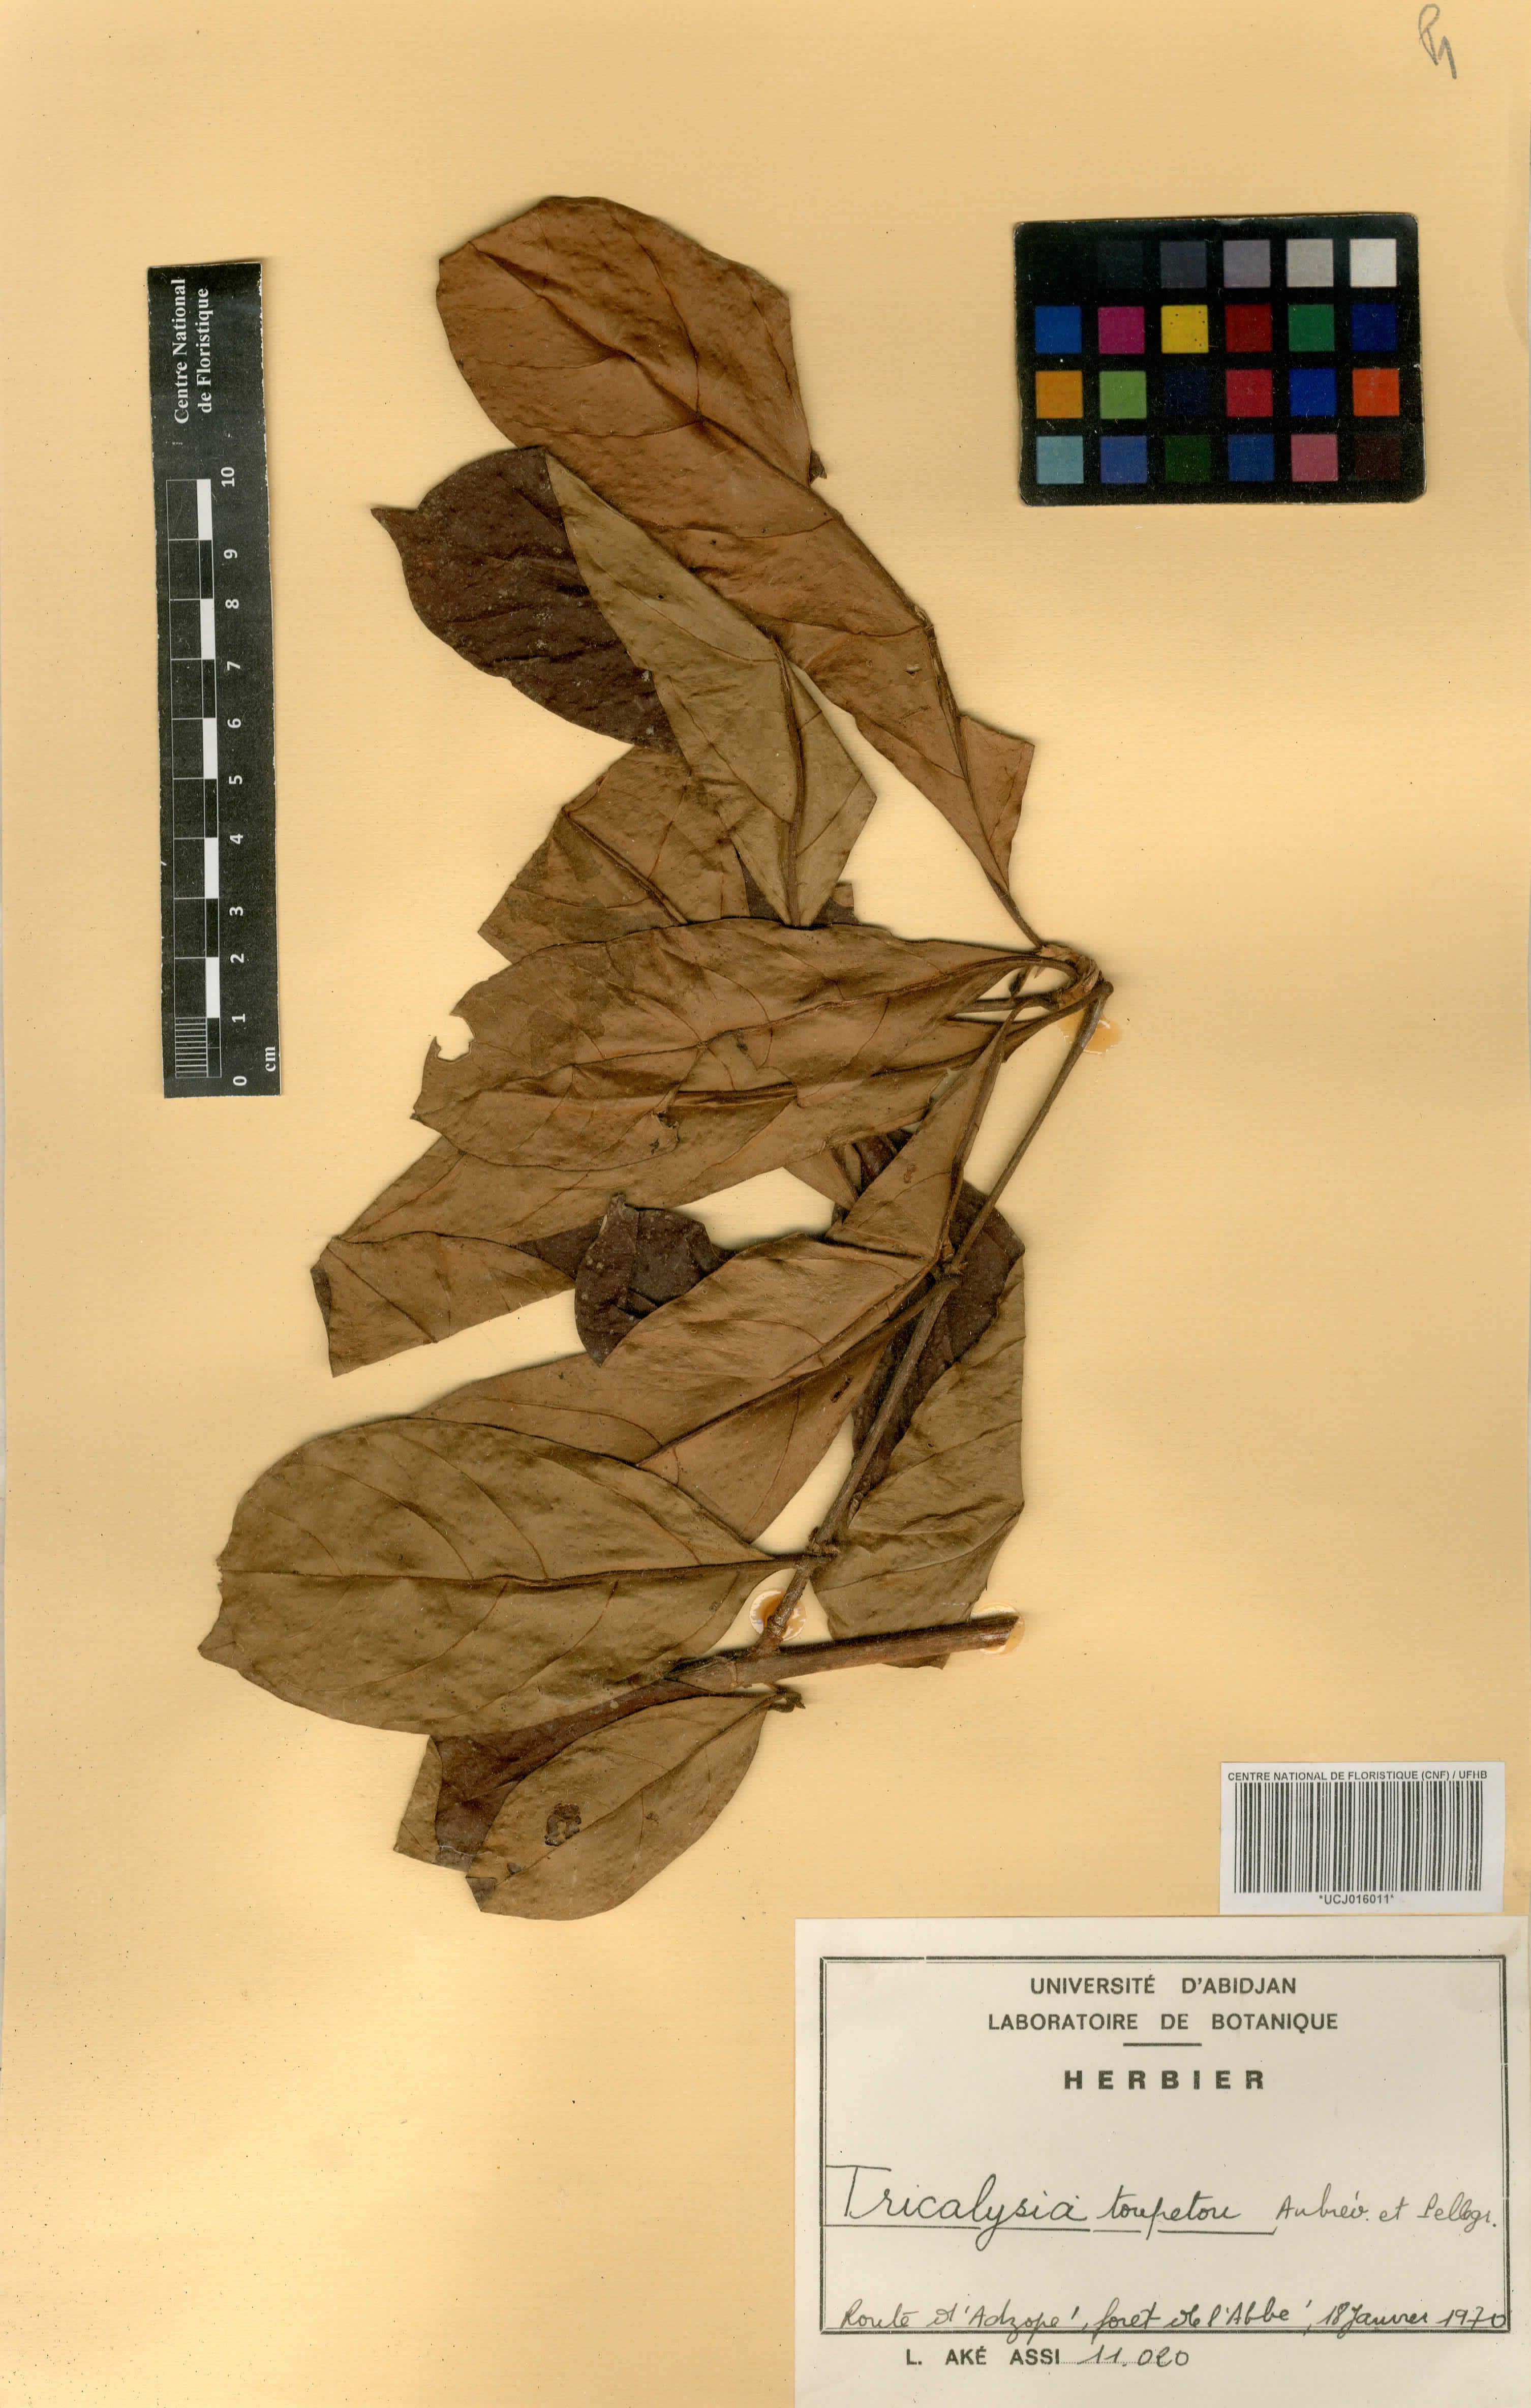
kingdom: Plantae
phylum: Tracheophyta
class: Magnoliopsida
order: Gentianales
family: Rubiaceae
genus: Sericanthe
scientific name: Sericanthe toupetou
